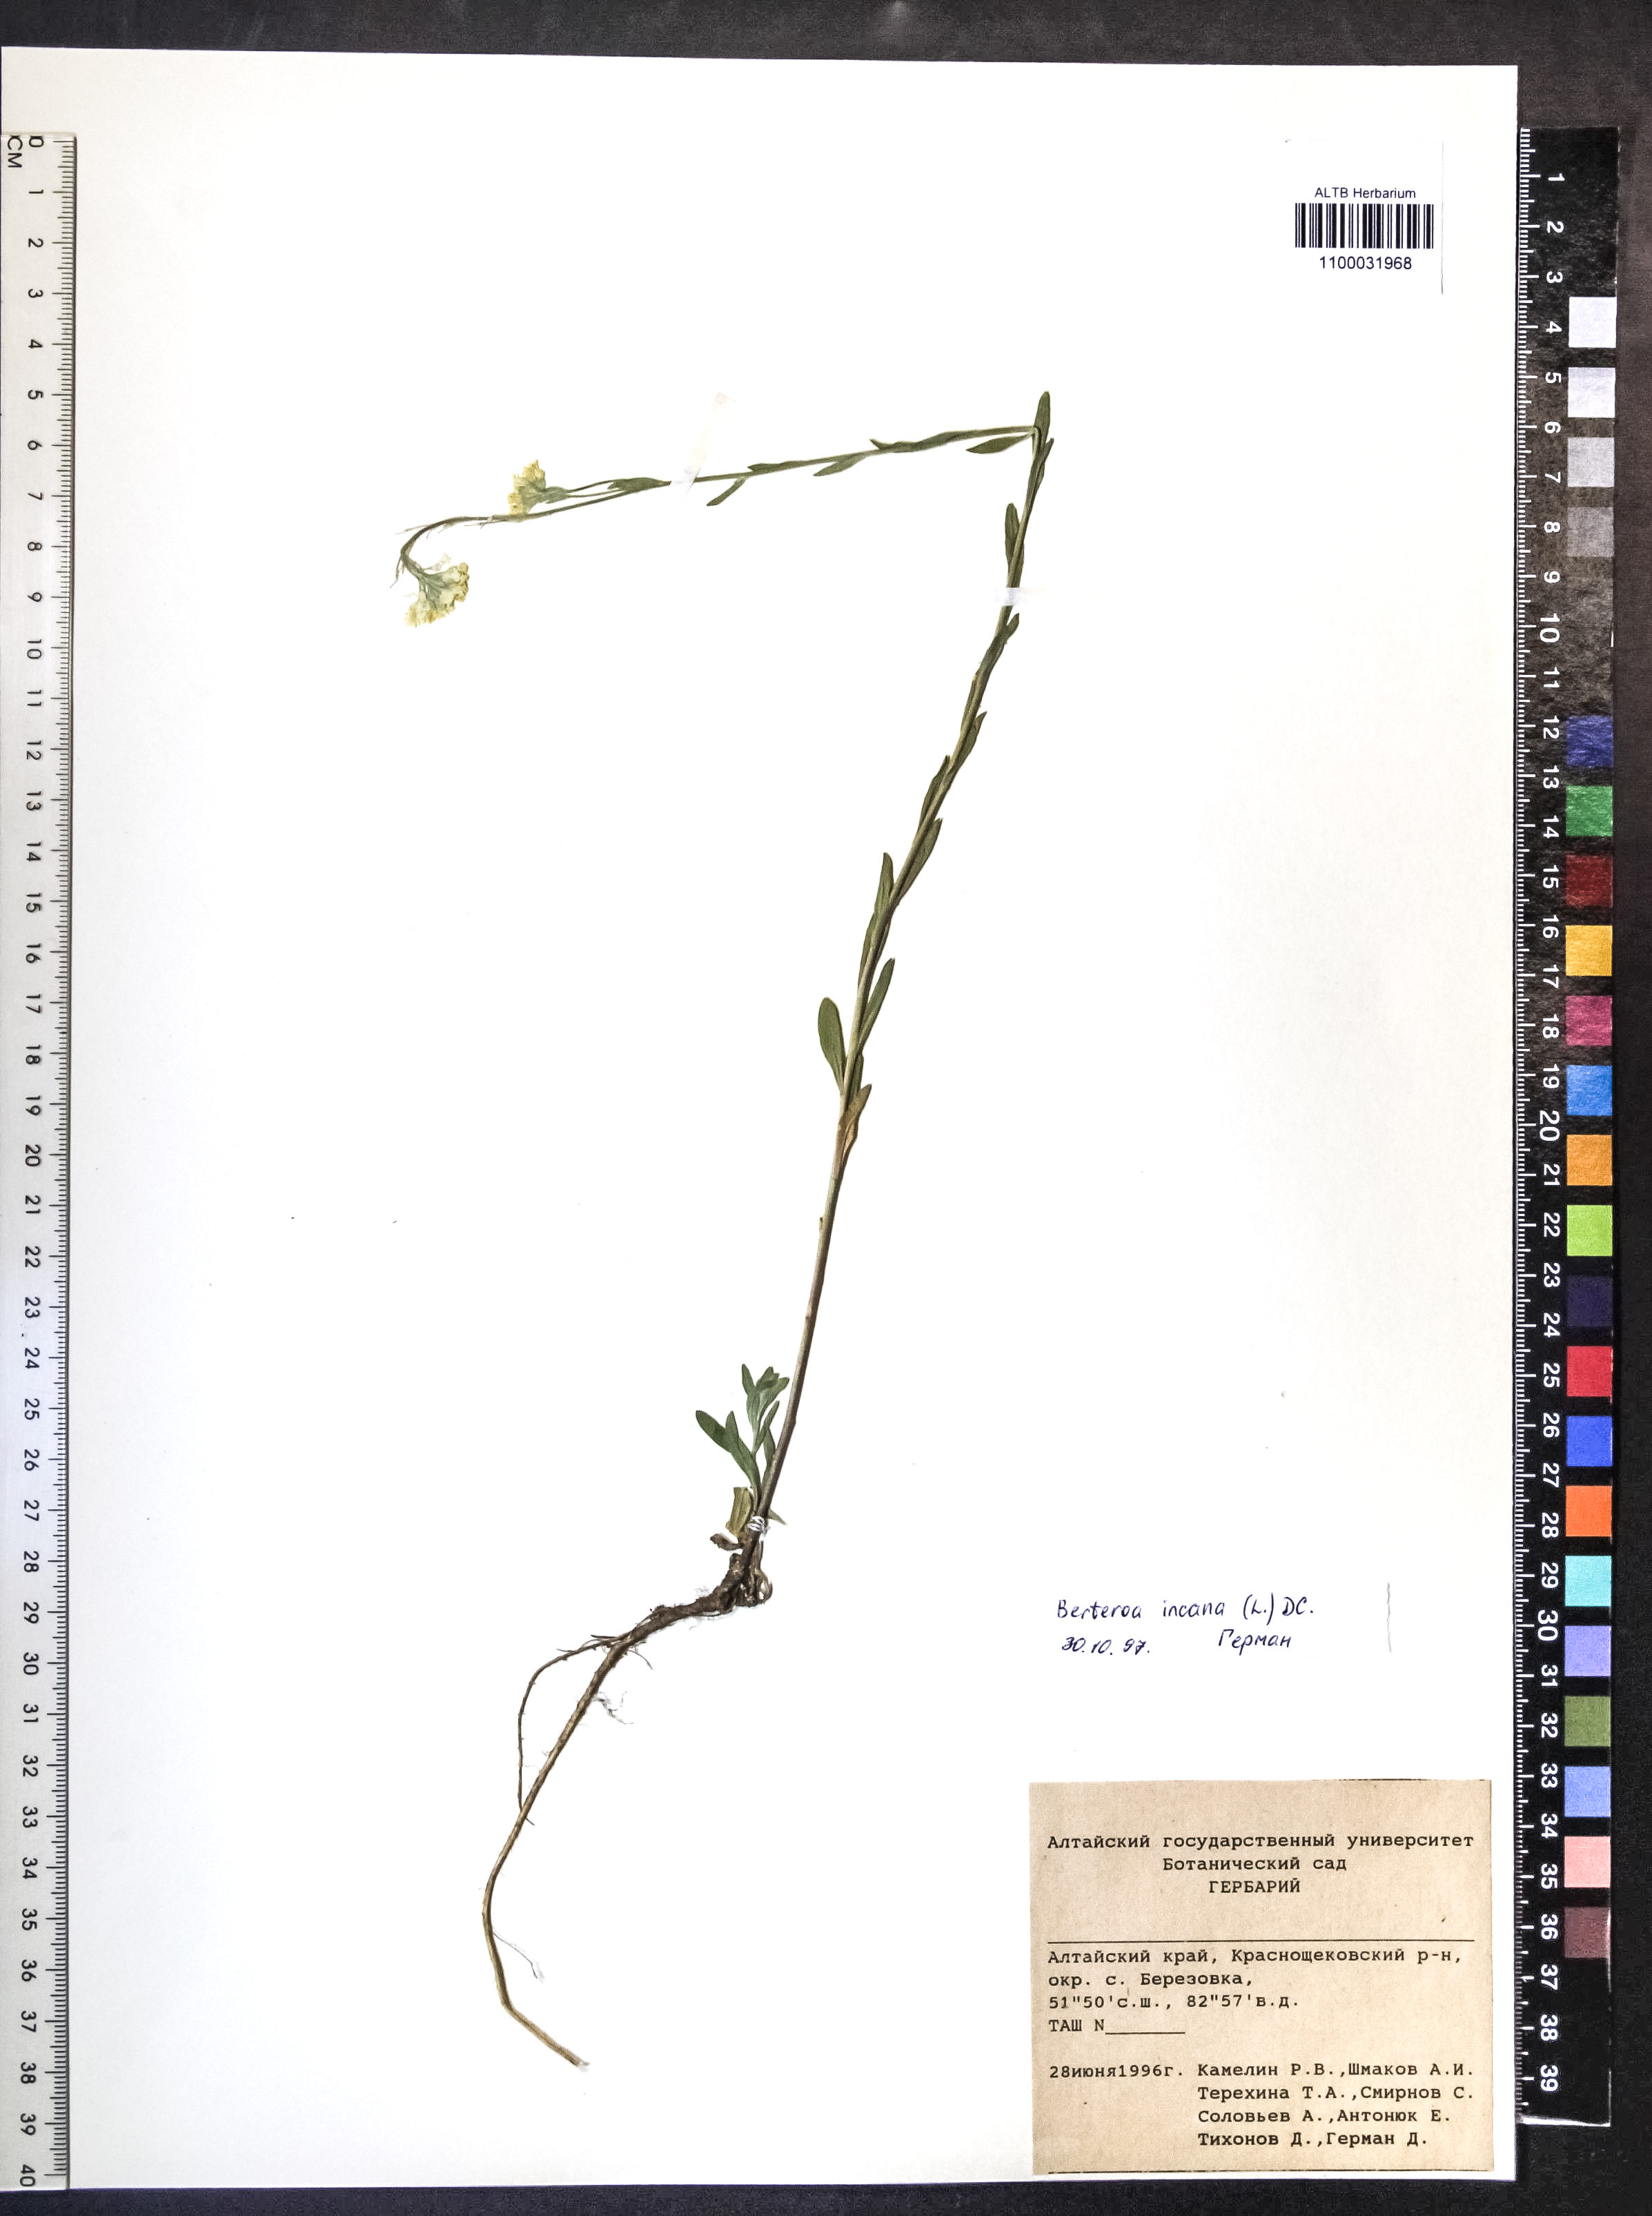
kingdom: Plantae
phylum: Tracheophyta
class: Magnoliopsida
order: Brassicales
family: Brassicaceae
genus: Berteroa
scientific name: Berteroa incana
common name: Hoary alison
